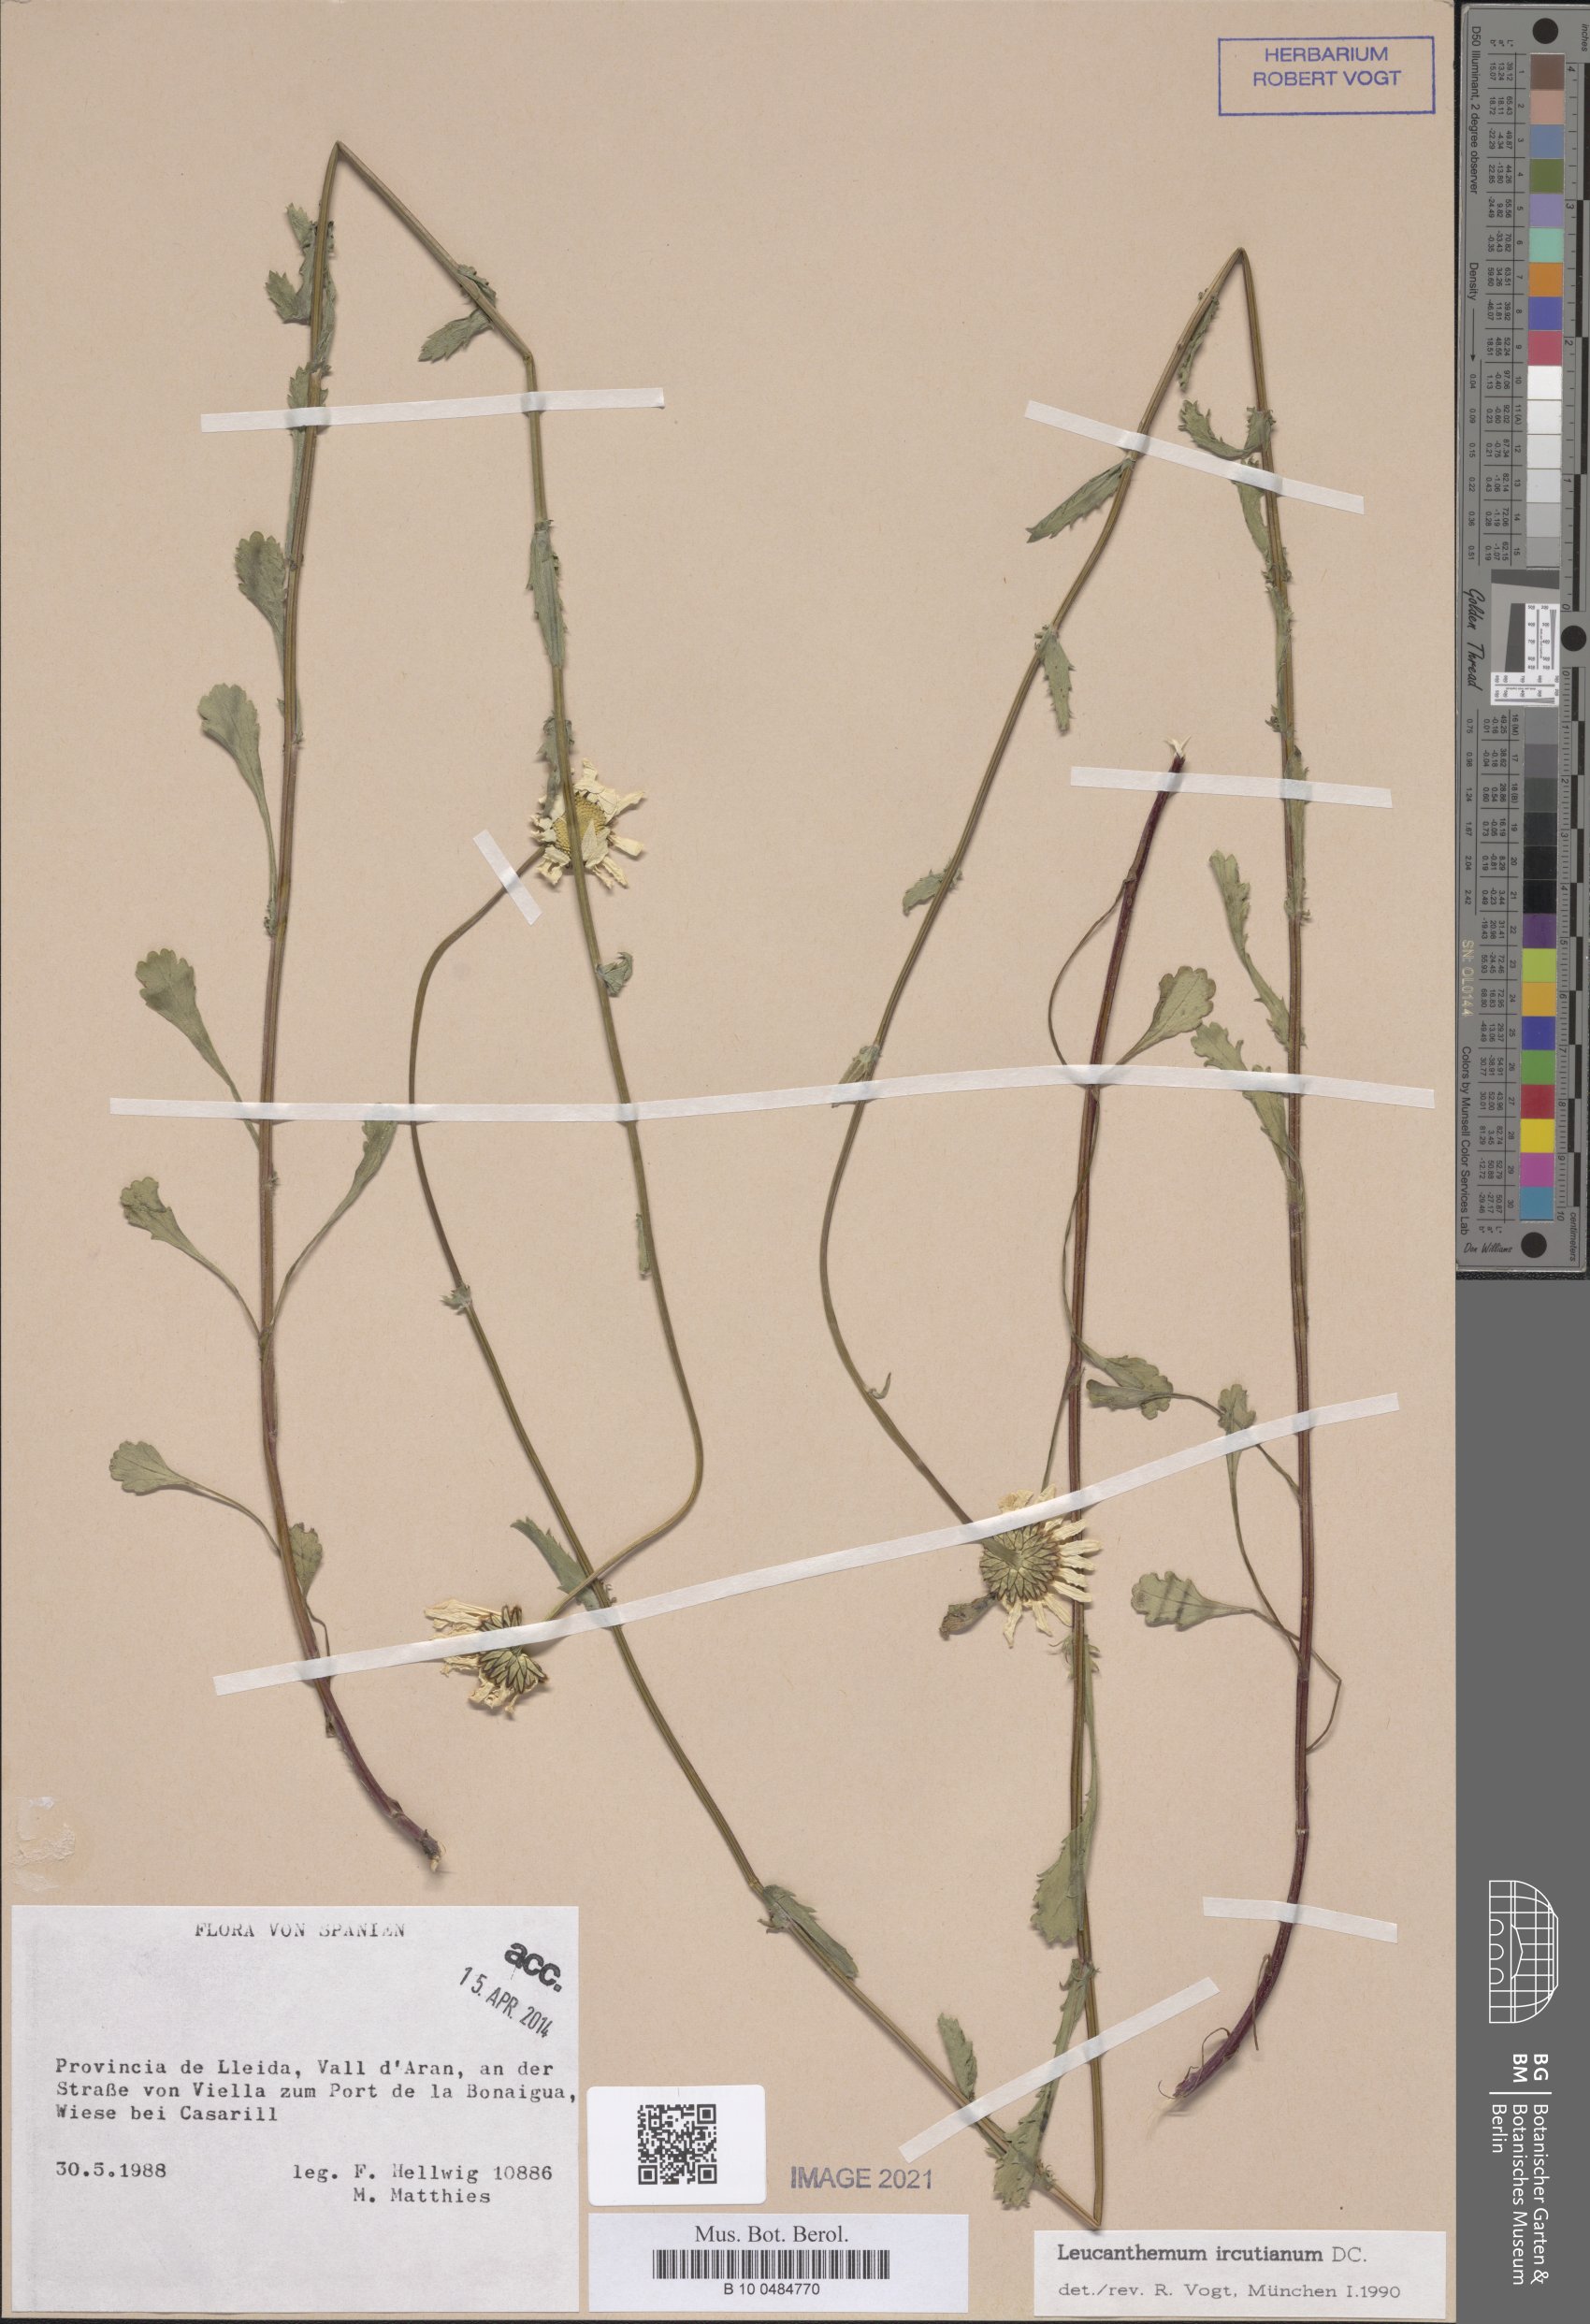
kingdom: Plantae
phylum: Tracheophyta
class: Magnoliopsida
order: Asterales
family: Asteraceae
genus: Leucanthemum
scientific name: Leucanthemum ircutianum
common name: Daisy
